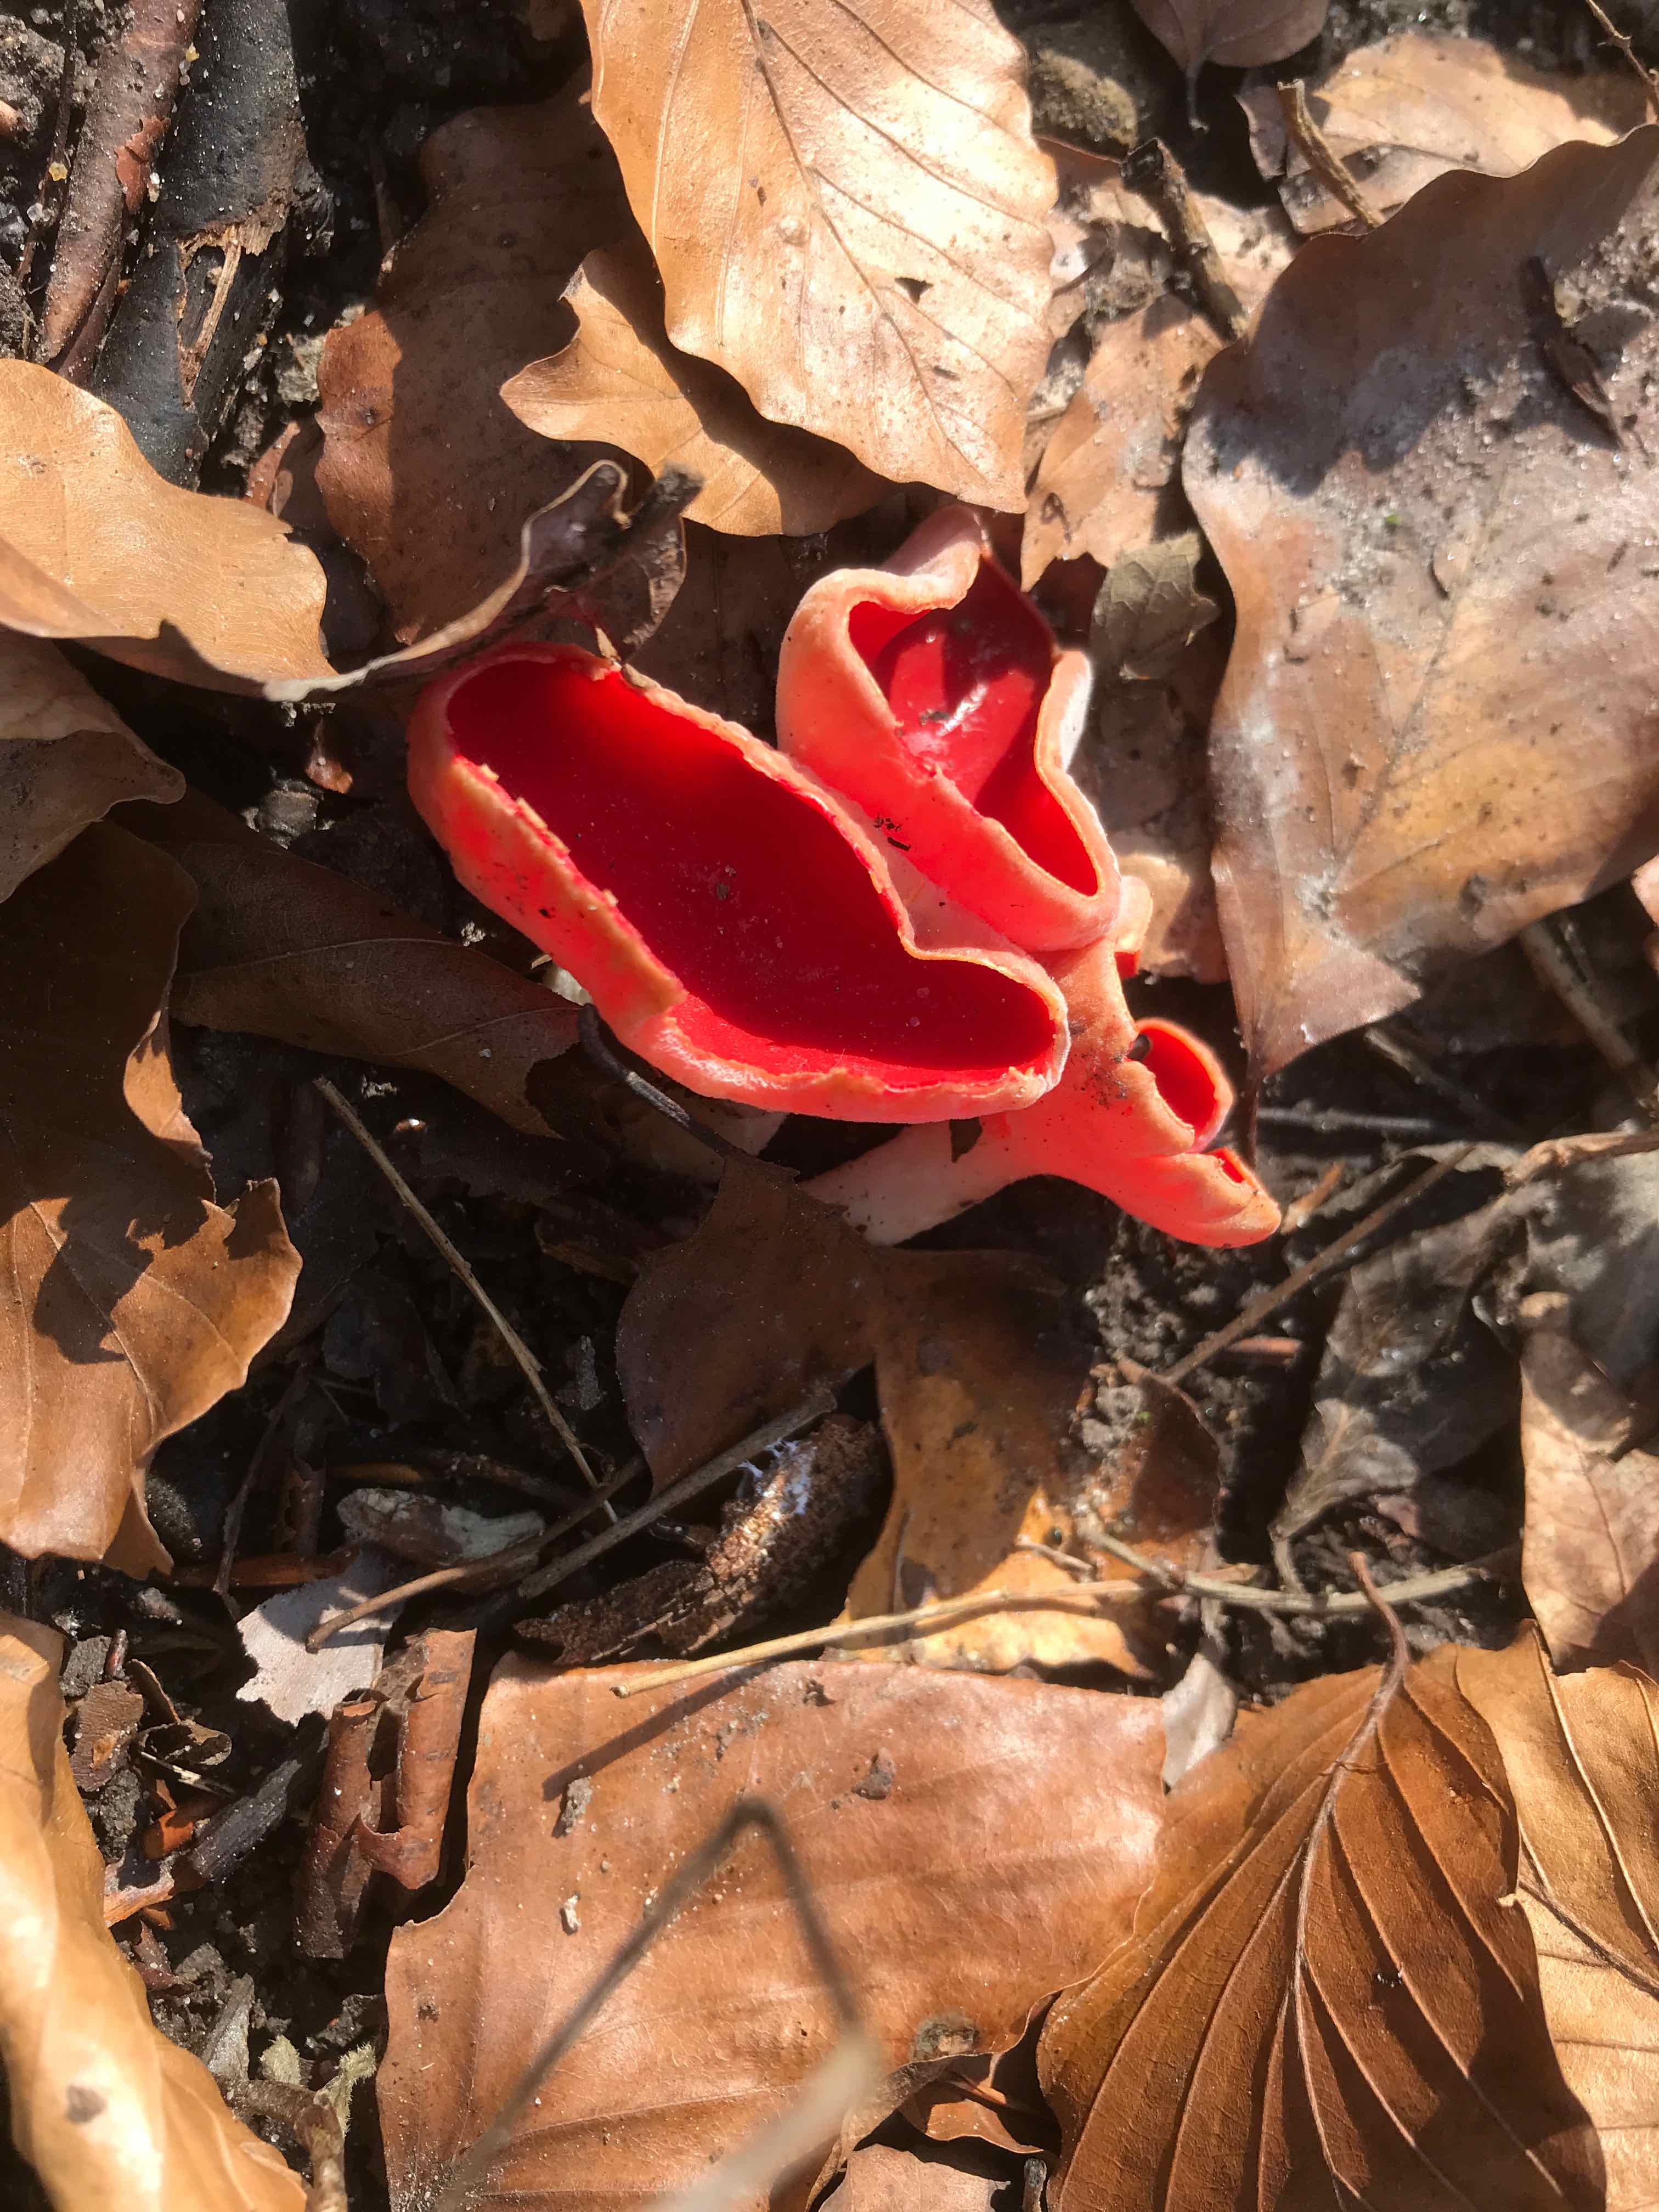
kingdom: Fungi
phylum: Ascomycota
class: Pezizomycetes
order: Pezizales
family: Sarcoscyphaceae
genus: Sarcoscypha
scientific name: Sarcoscypha austriaca
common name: krølhåret pragtbæger
